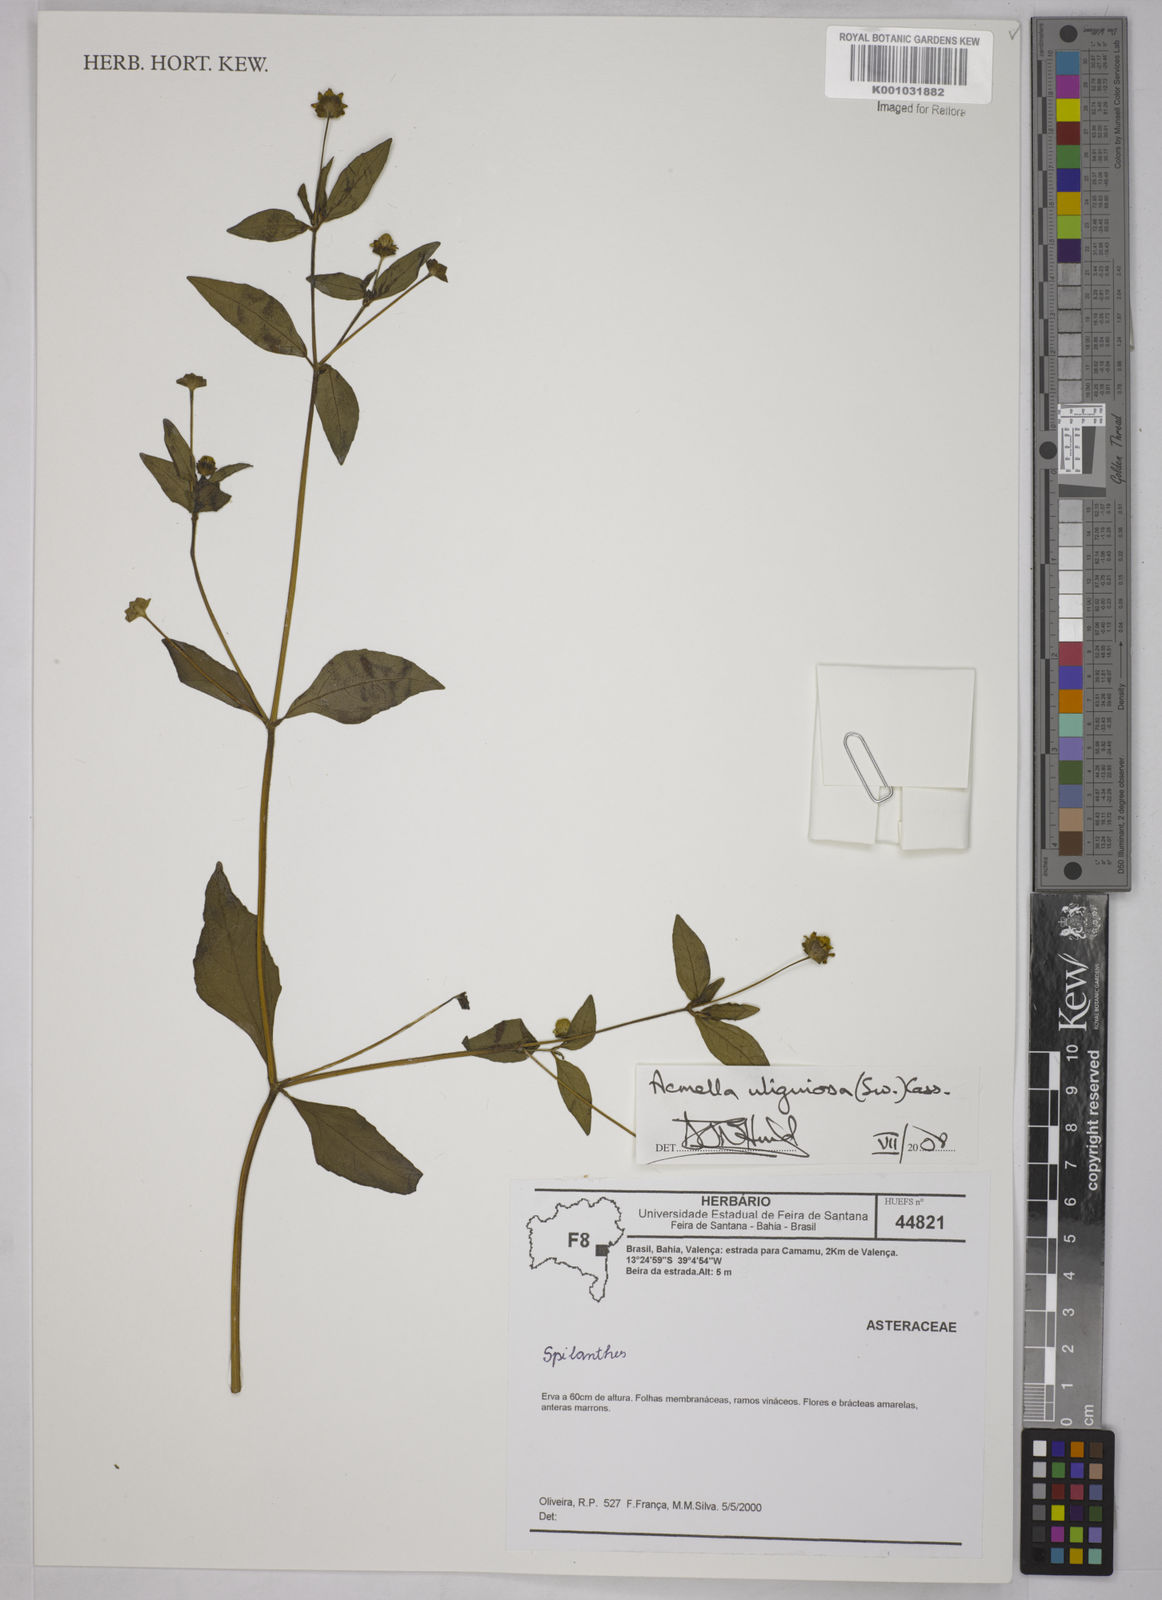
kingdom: Plantae
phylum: Tracheophyta
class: Magnoliopsida
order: Asterales
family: Asteraceae
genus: Acmella
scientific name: Acmella uliginosa
